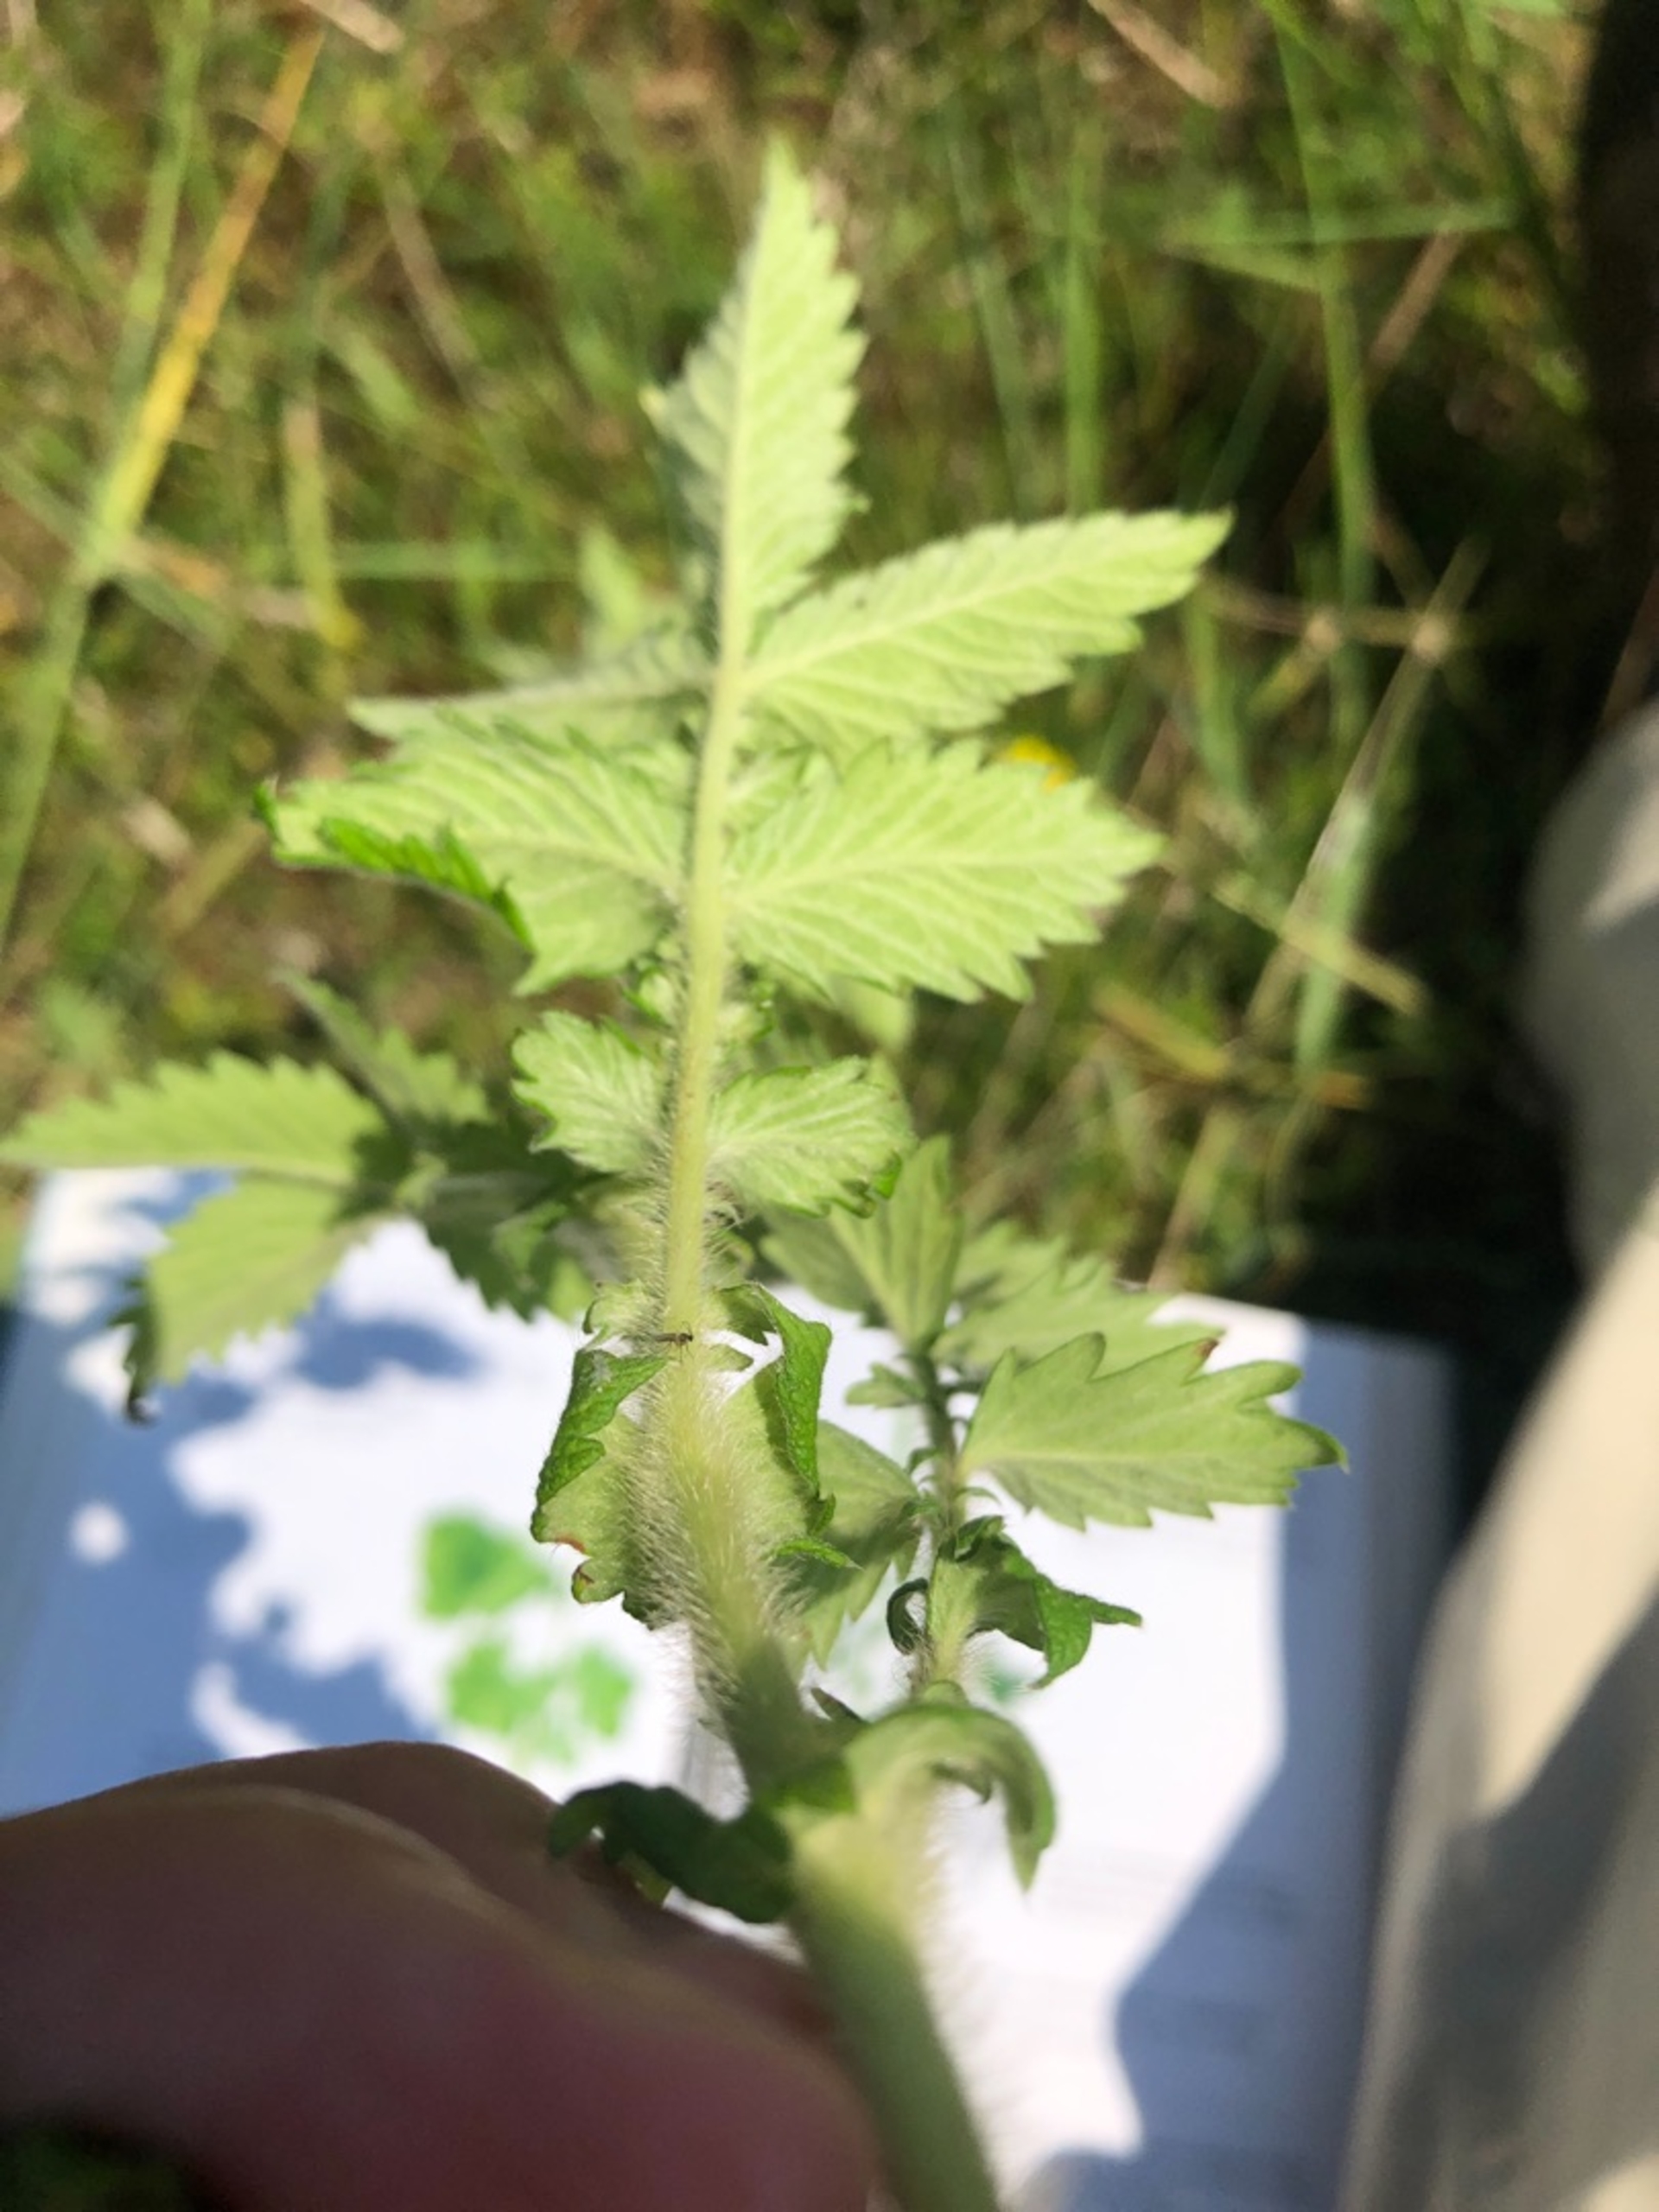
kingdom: Plantae
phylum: Tracheophyta
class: Magnoliopsida
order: Rosales
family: Rosaceae
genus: Agrimonia
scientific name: Agrimonia eupatoria
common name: Almindelig agermåne
